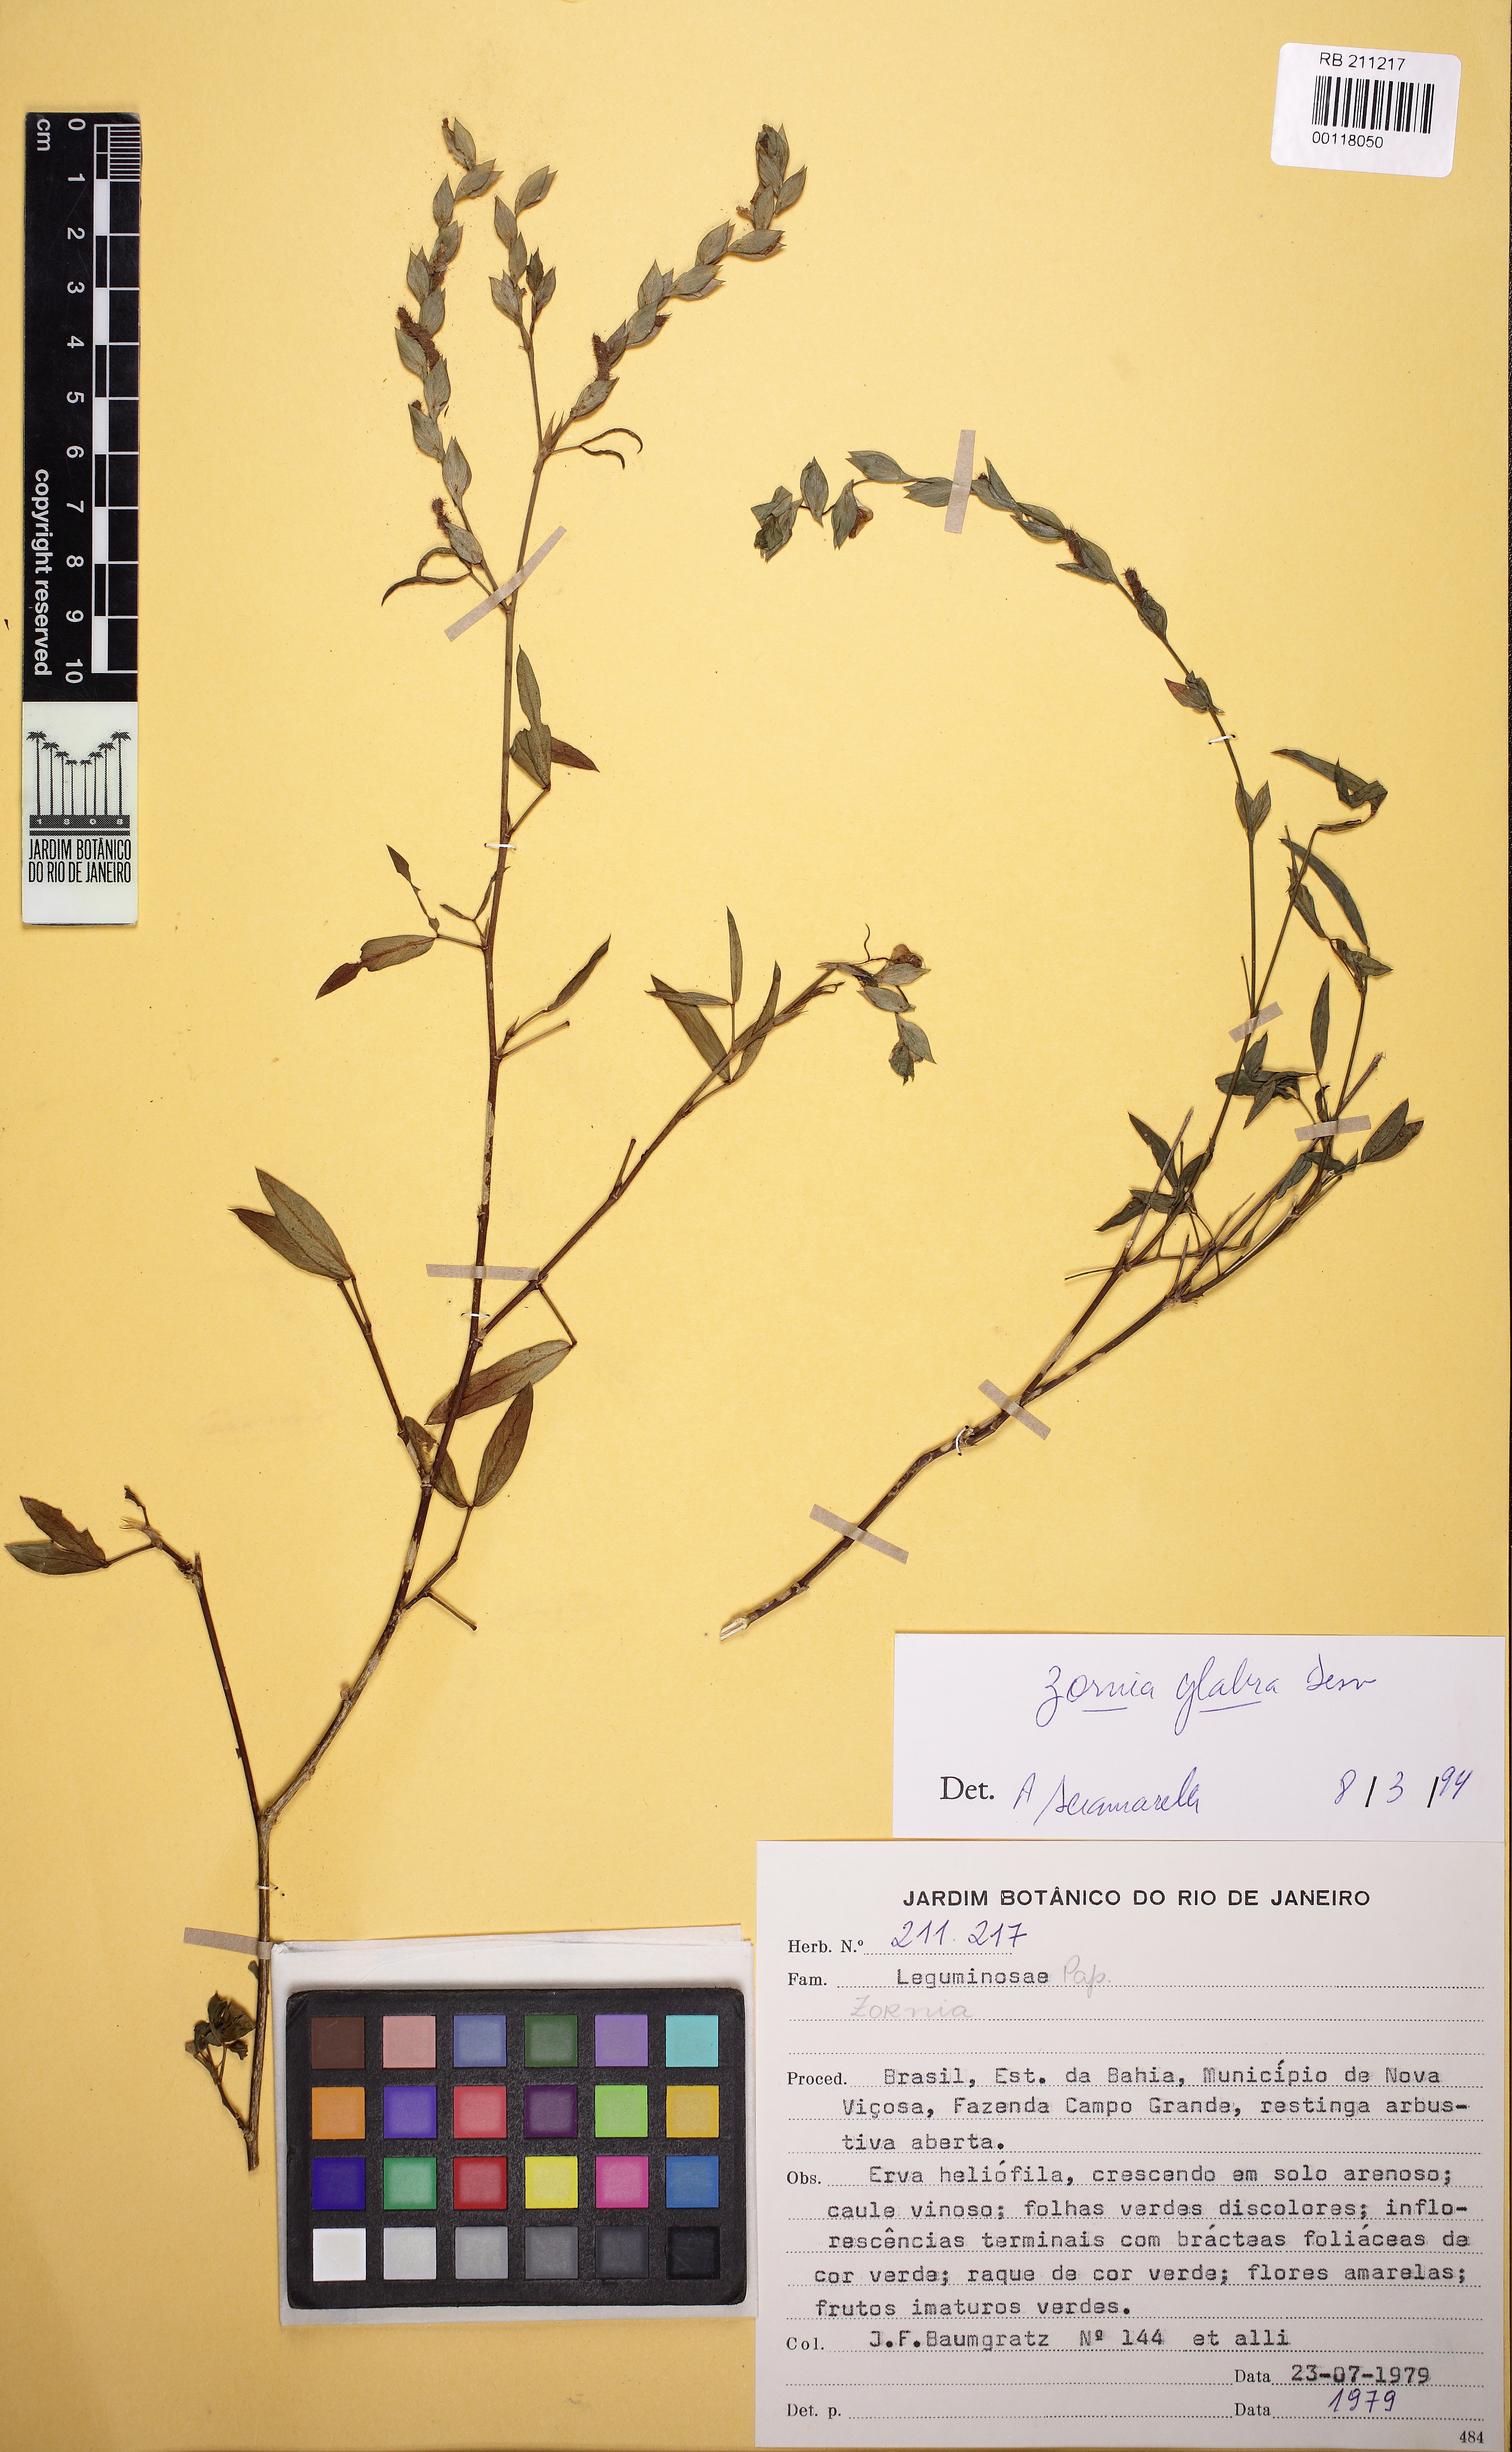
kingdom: Plantae
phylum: Tracheophyta
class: Magnoliopsida
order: Fabales
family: Fabaceae
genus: Zornia
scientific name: Zornia glabra
